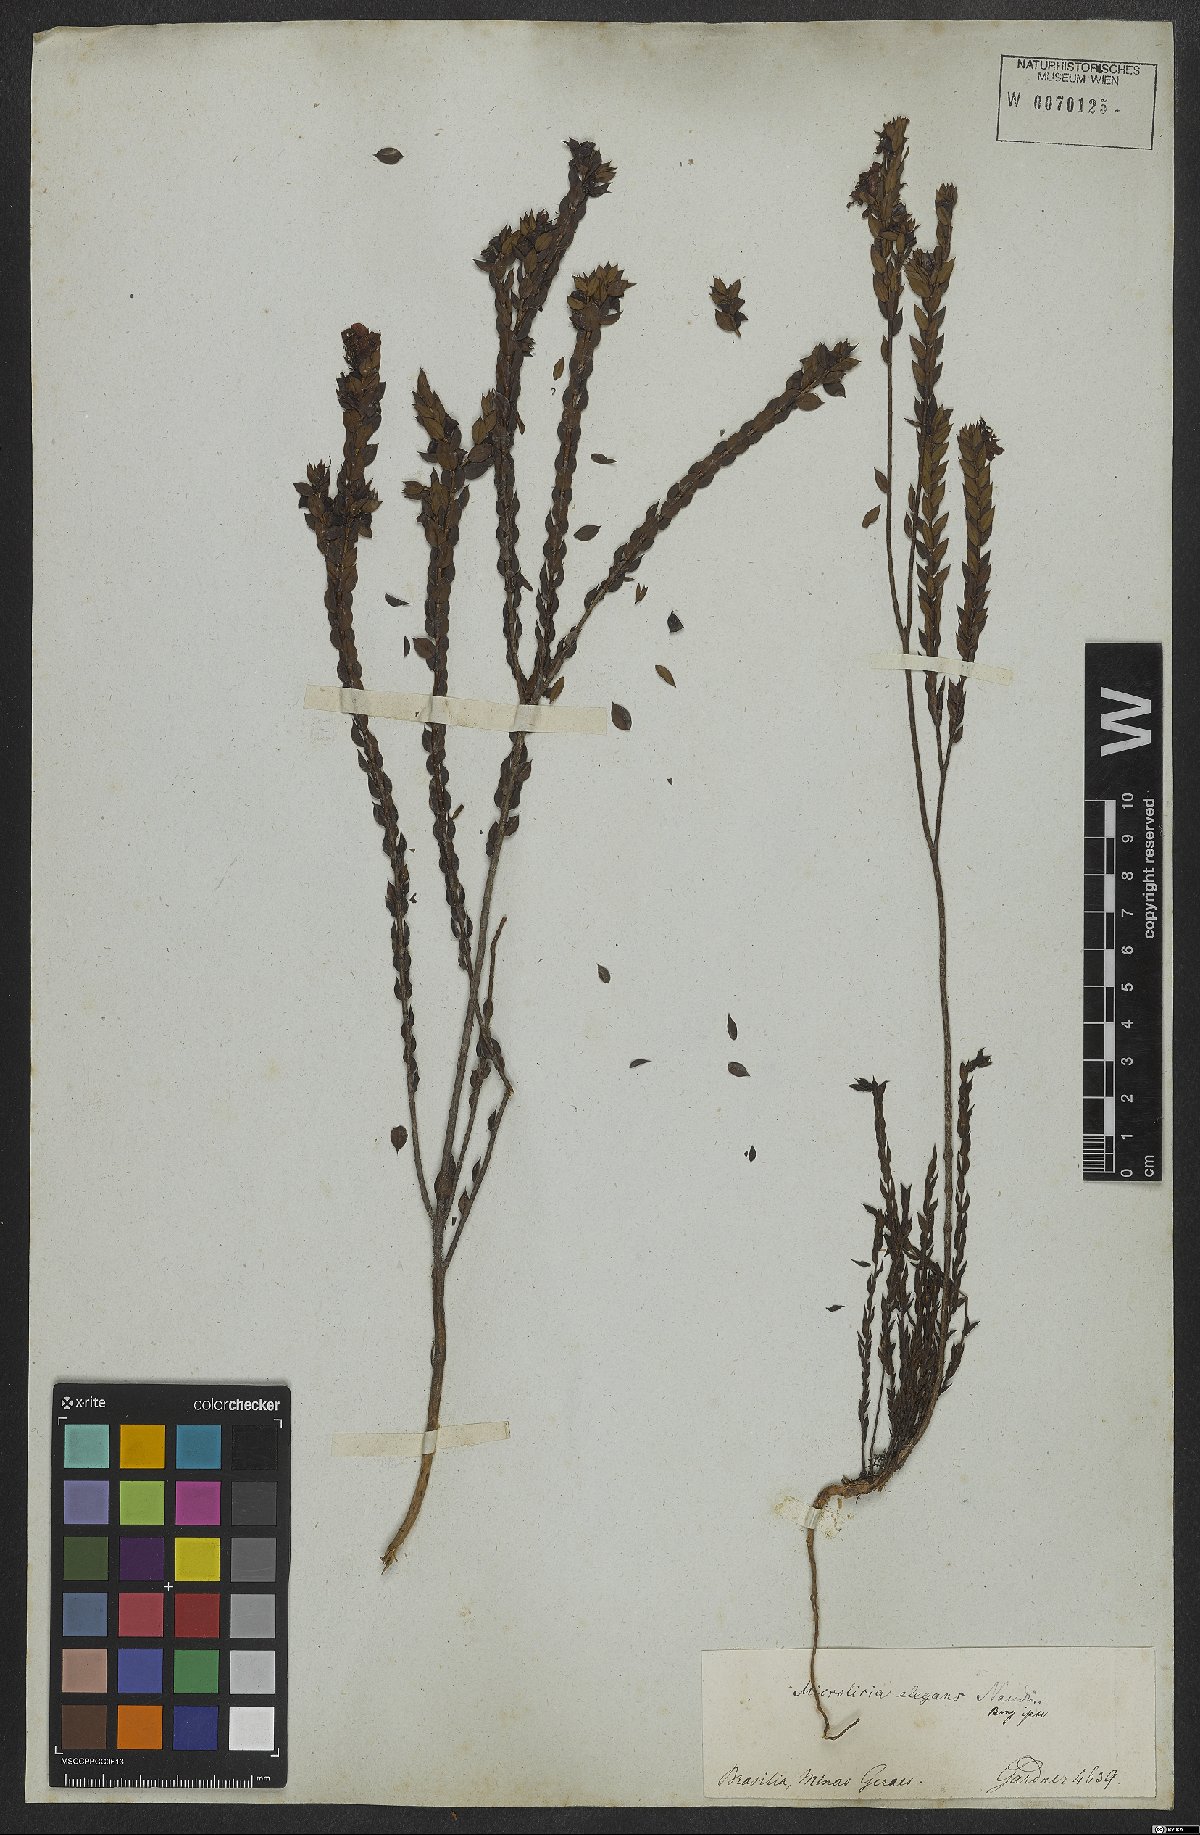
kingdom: Plantae
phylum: Tracheophyta
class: Magnoliopsida
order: Myrtales
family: Melastomataceae
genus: Microlicia
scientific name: Microlicia elegans
